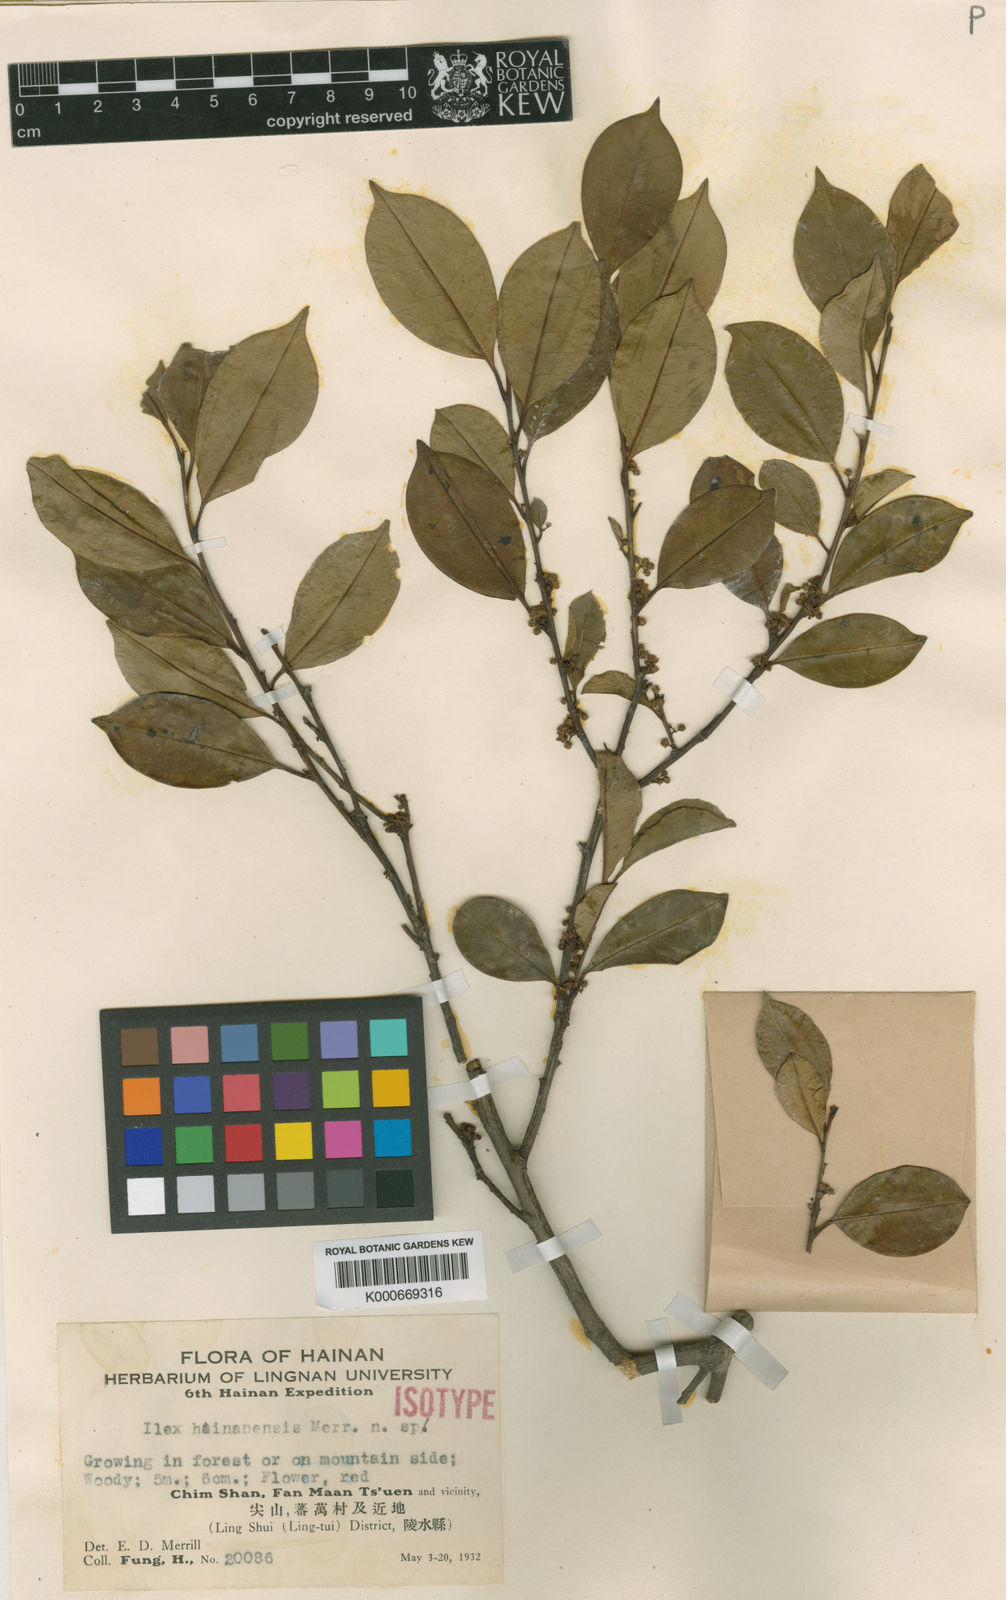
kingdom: Plantae
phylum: Tracheophyta
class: Magnoliopsida
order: Aquifoliales
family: Aquifoliaceae
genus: Ilex
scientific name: Ilex hainanensis
